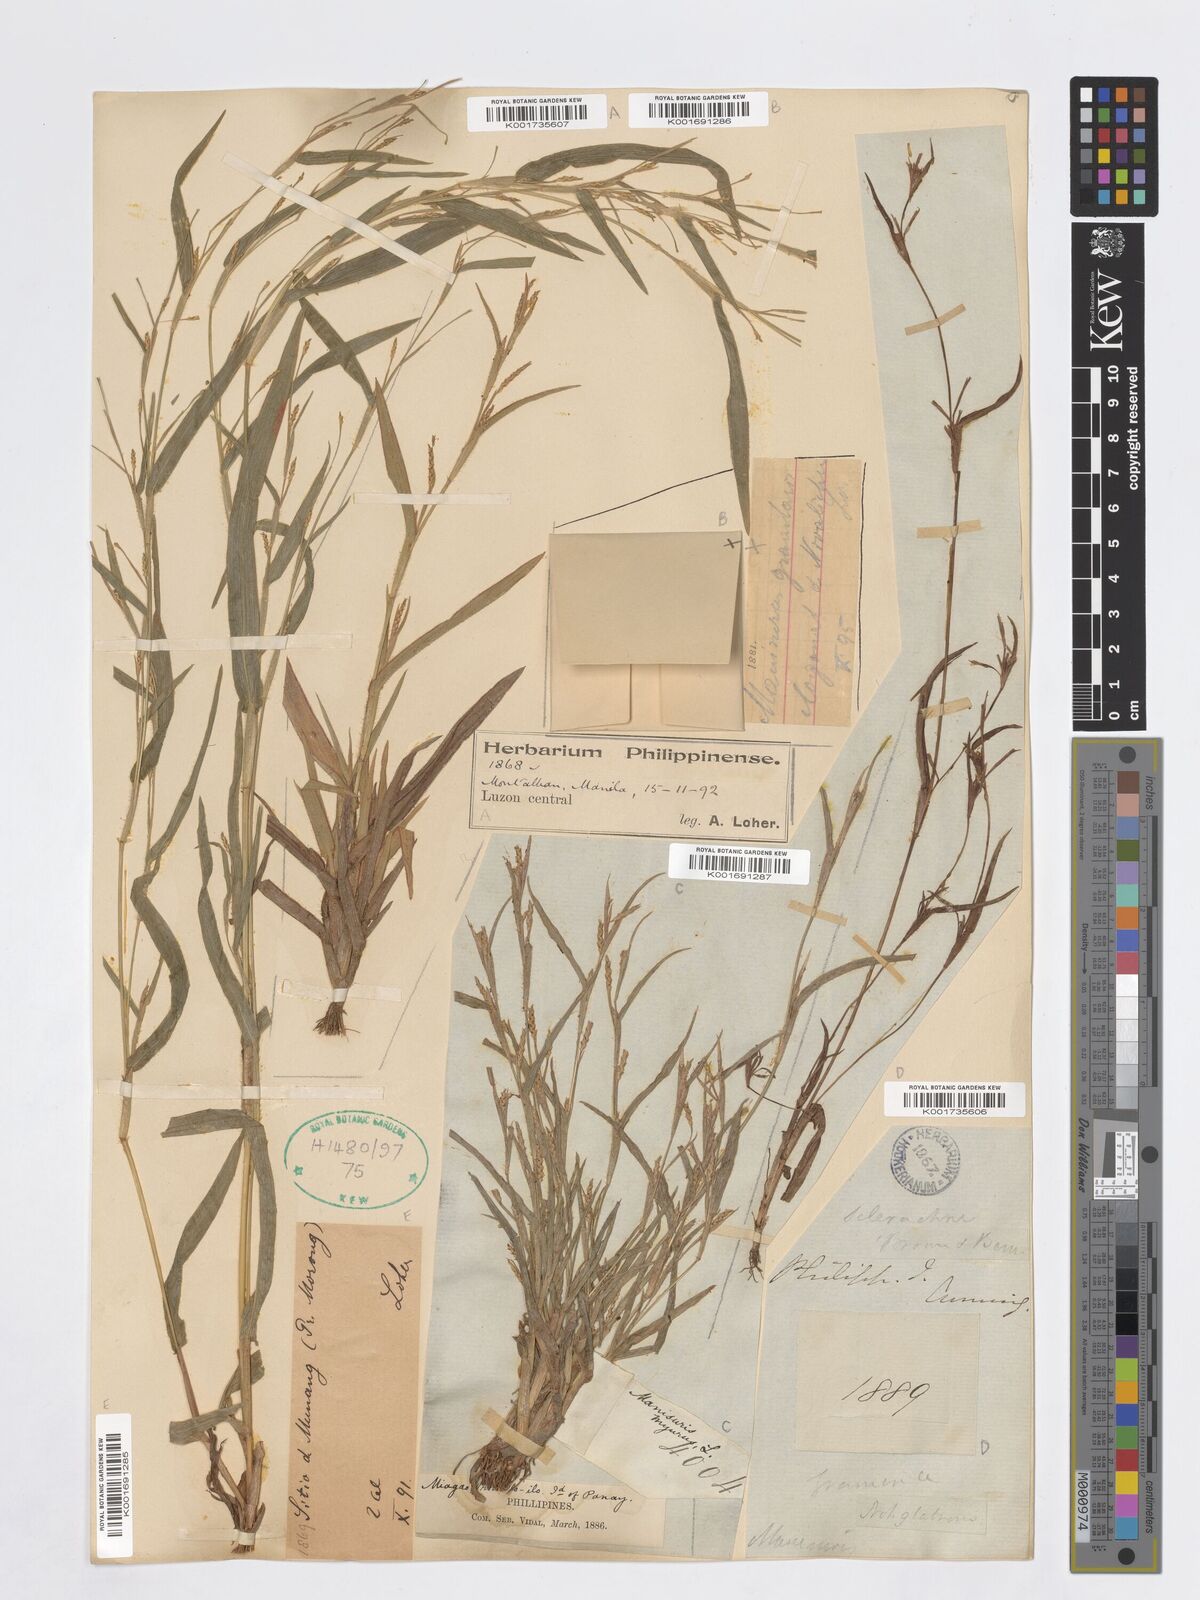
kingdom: Plantae
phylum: Tracheophyta
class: Liliopsida
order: Poales
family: Poaceae
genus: Manisuris
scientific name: Manisuris
